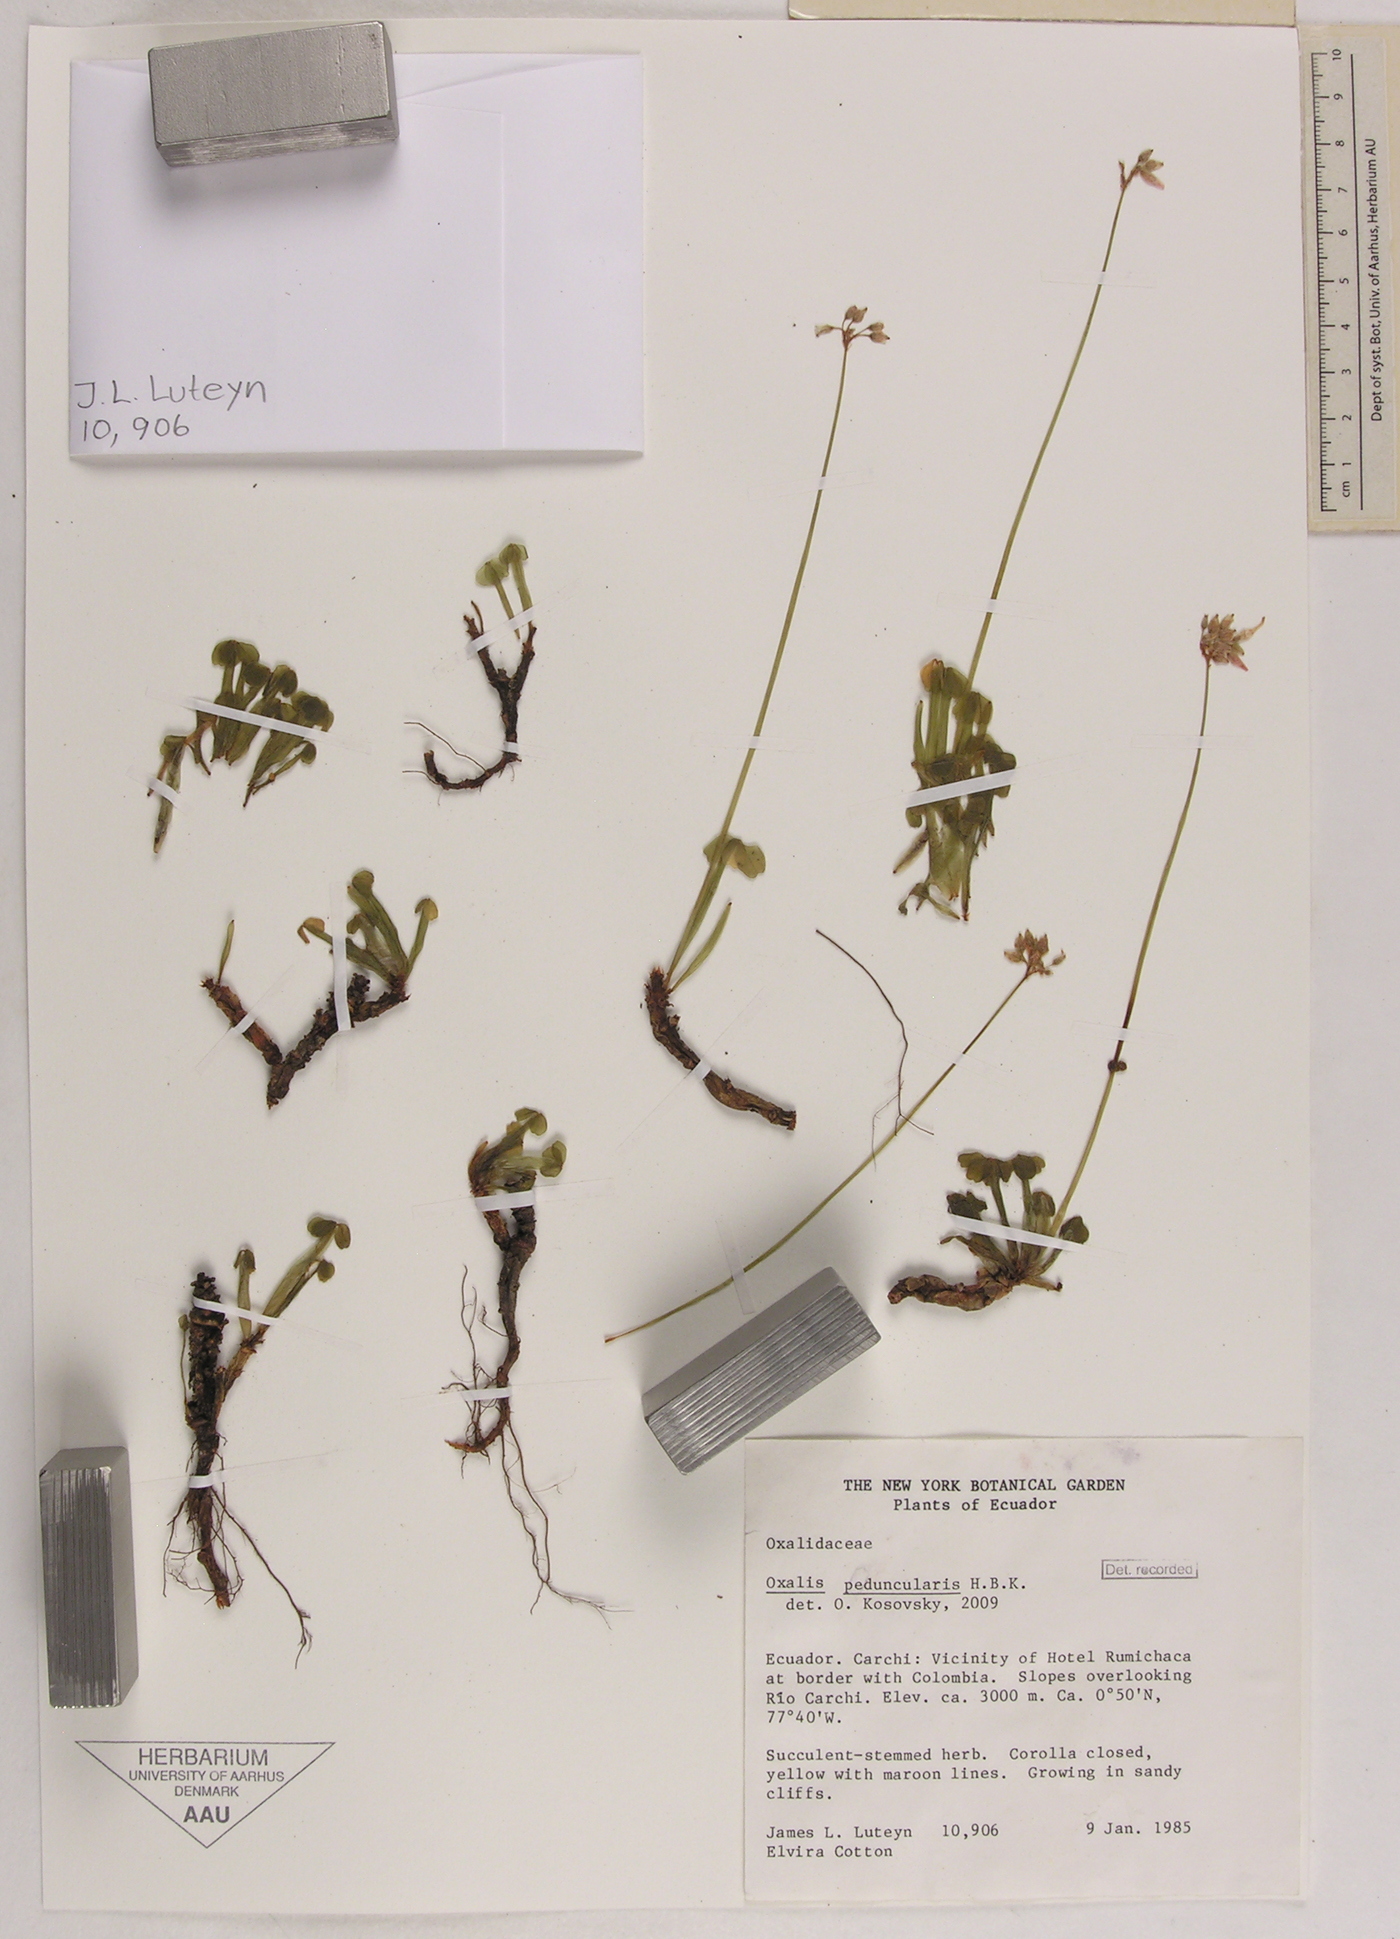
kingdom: Plantae
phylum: Tracheophyta
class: Magnoliopsida
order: Oxalidales
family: Oxalidaceae
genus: Oxalis
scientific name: Oxalis peduncularis
